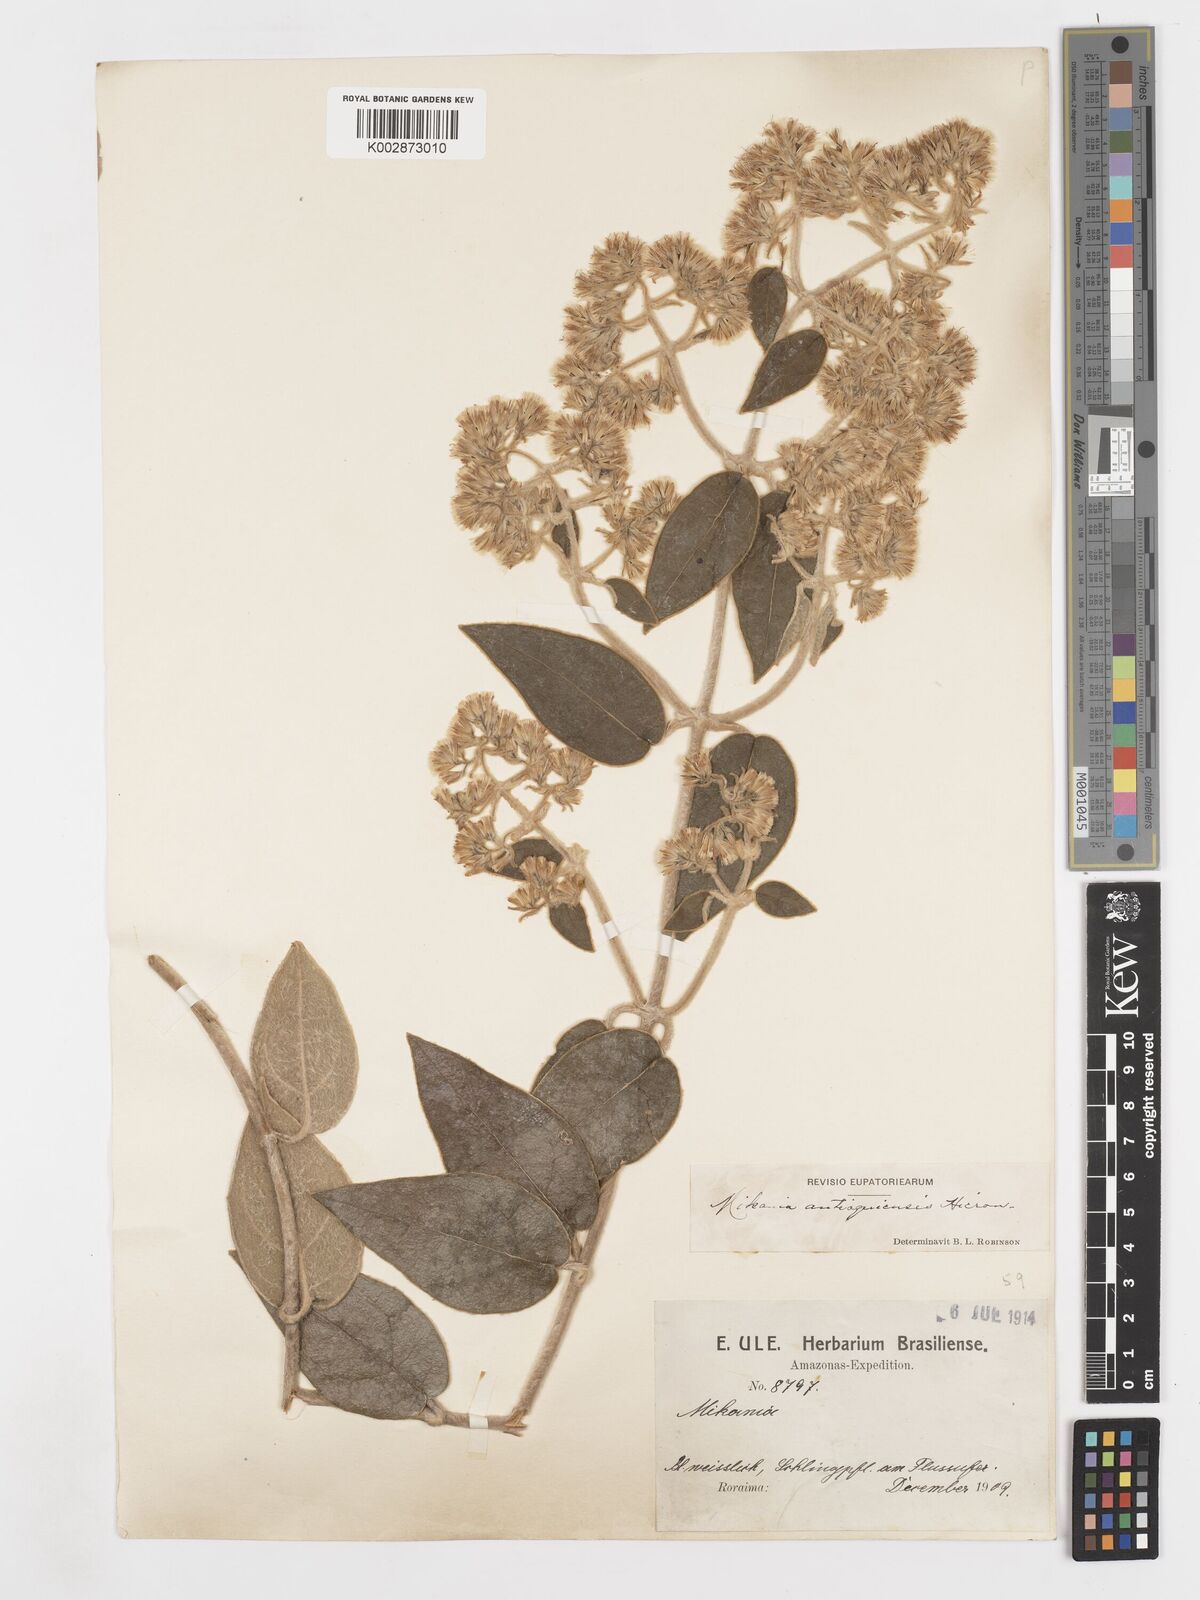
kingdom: Plantae
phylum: Tracheophyta
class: Magnoliopsida
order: Asterales
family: Asteraceae
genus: Mikania
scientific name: Mikania banisteriae
